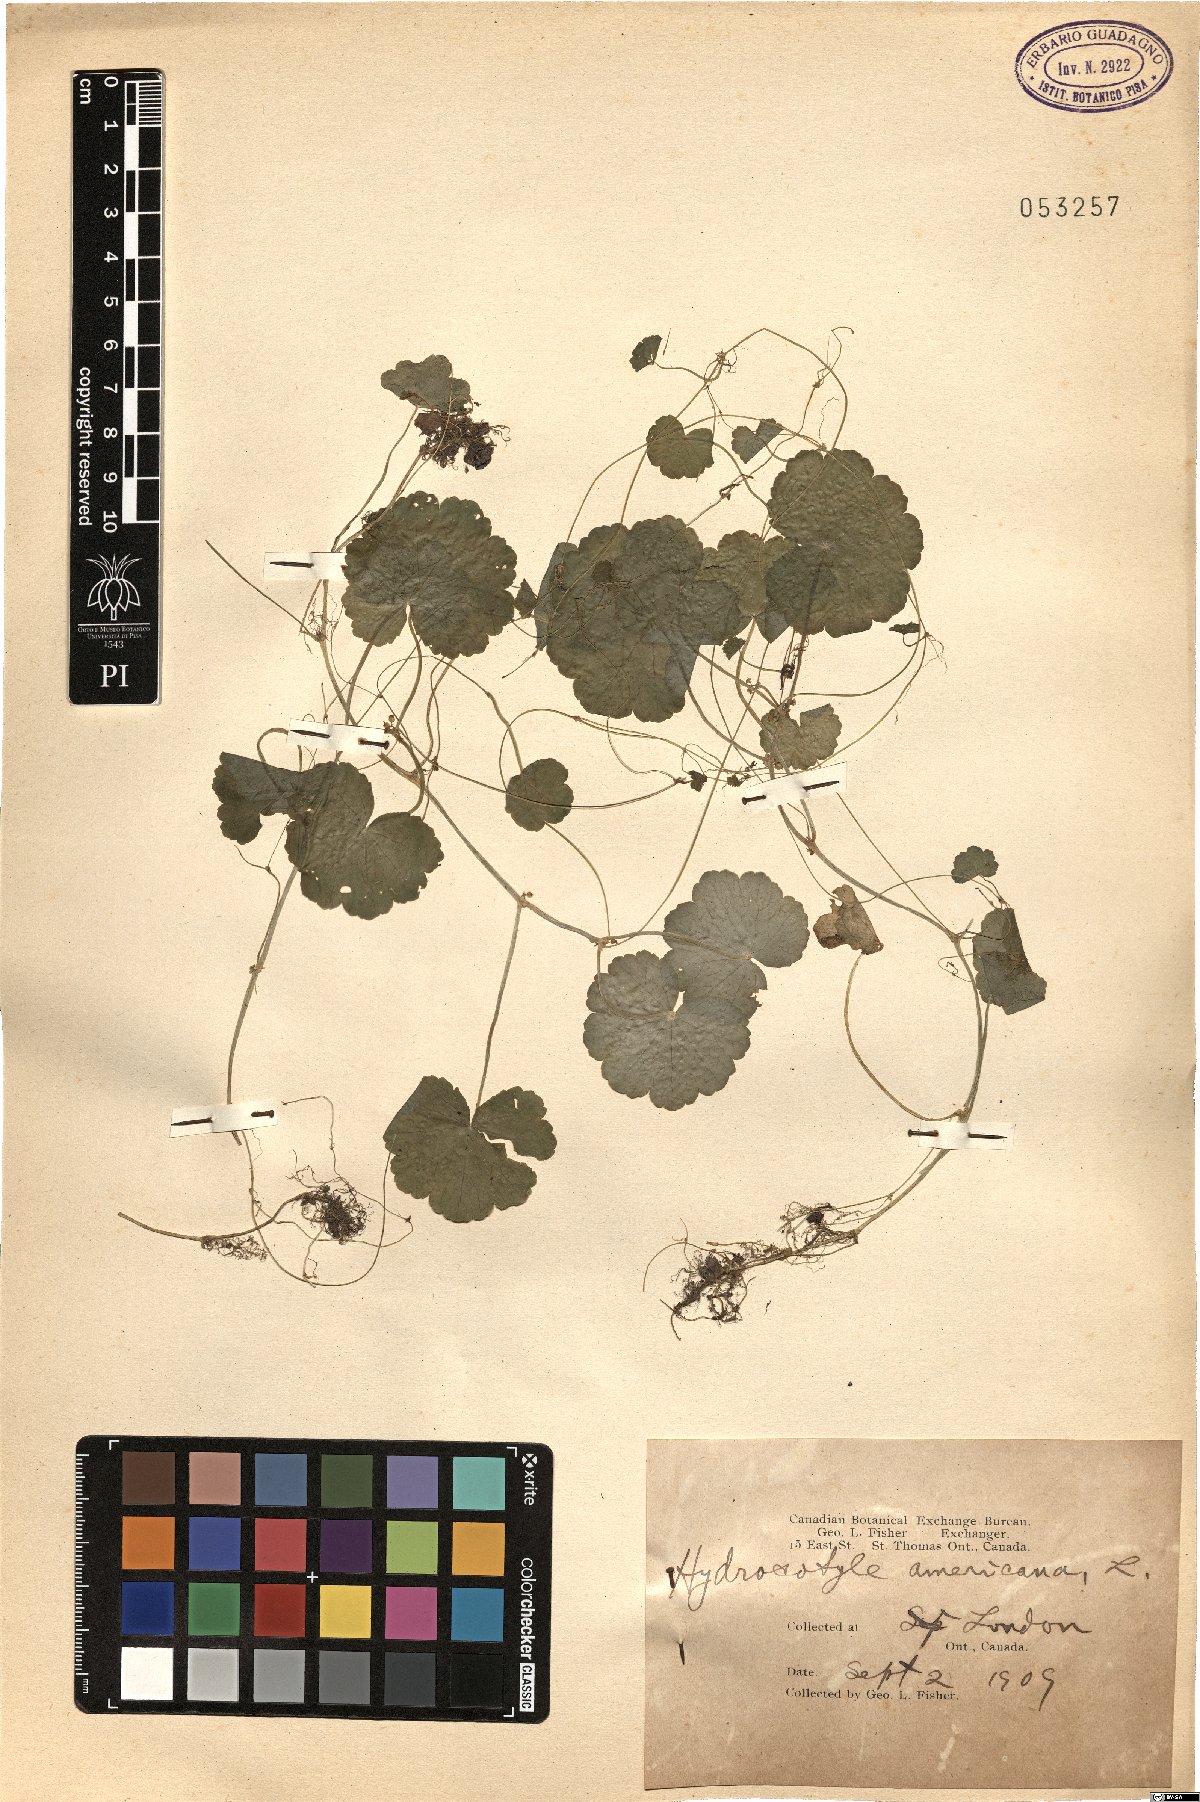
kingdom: Plantae
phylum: Tracheophyta
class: Magnoliopsida
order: Apiales
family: Araliaceae
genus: Hydrocotyle
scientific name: Hydrocotyle americana
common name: American water-pennywort
